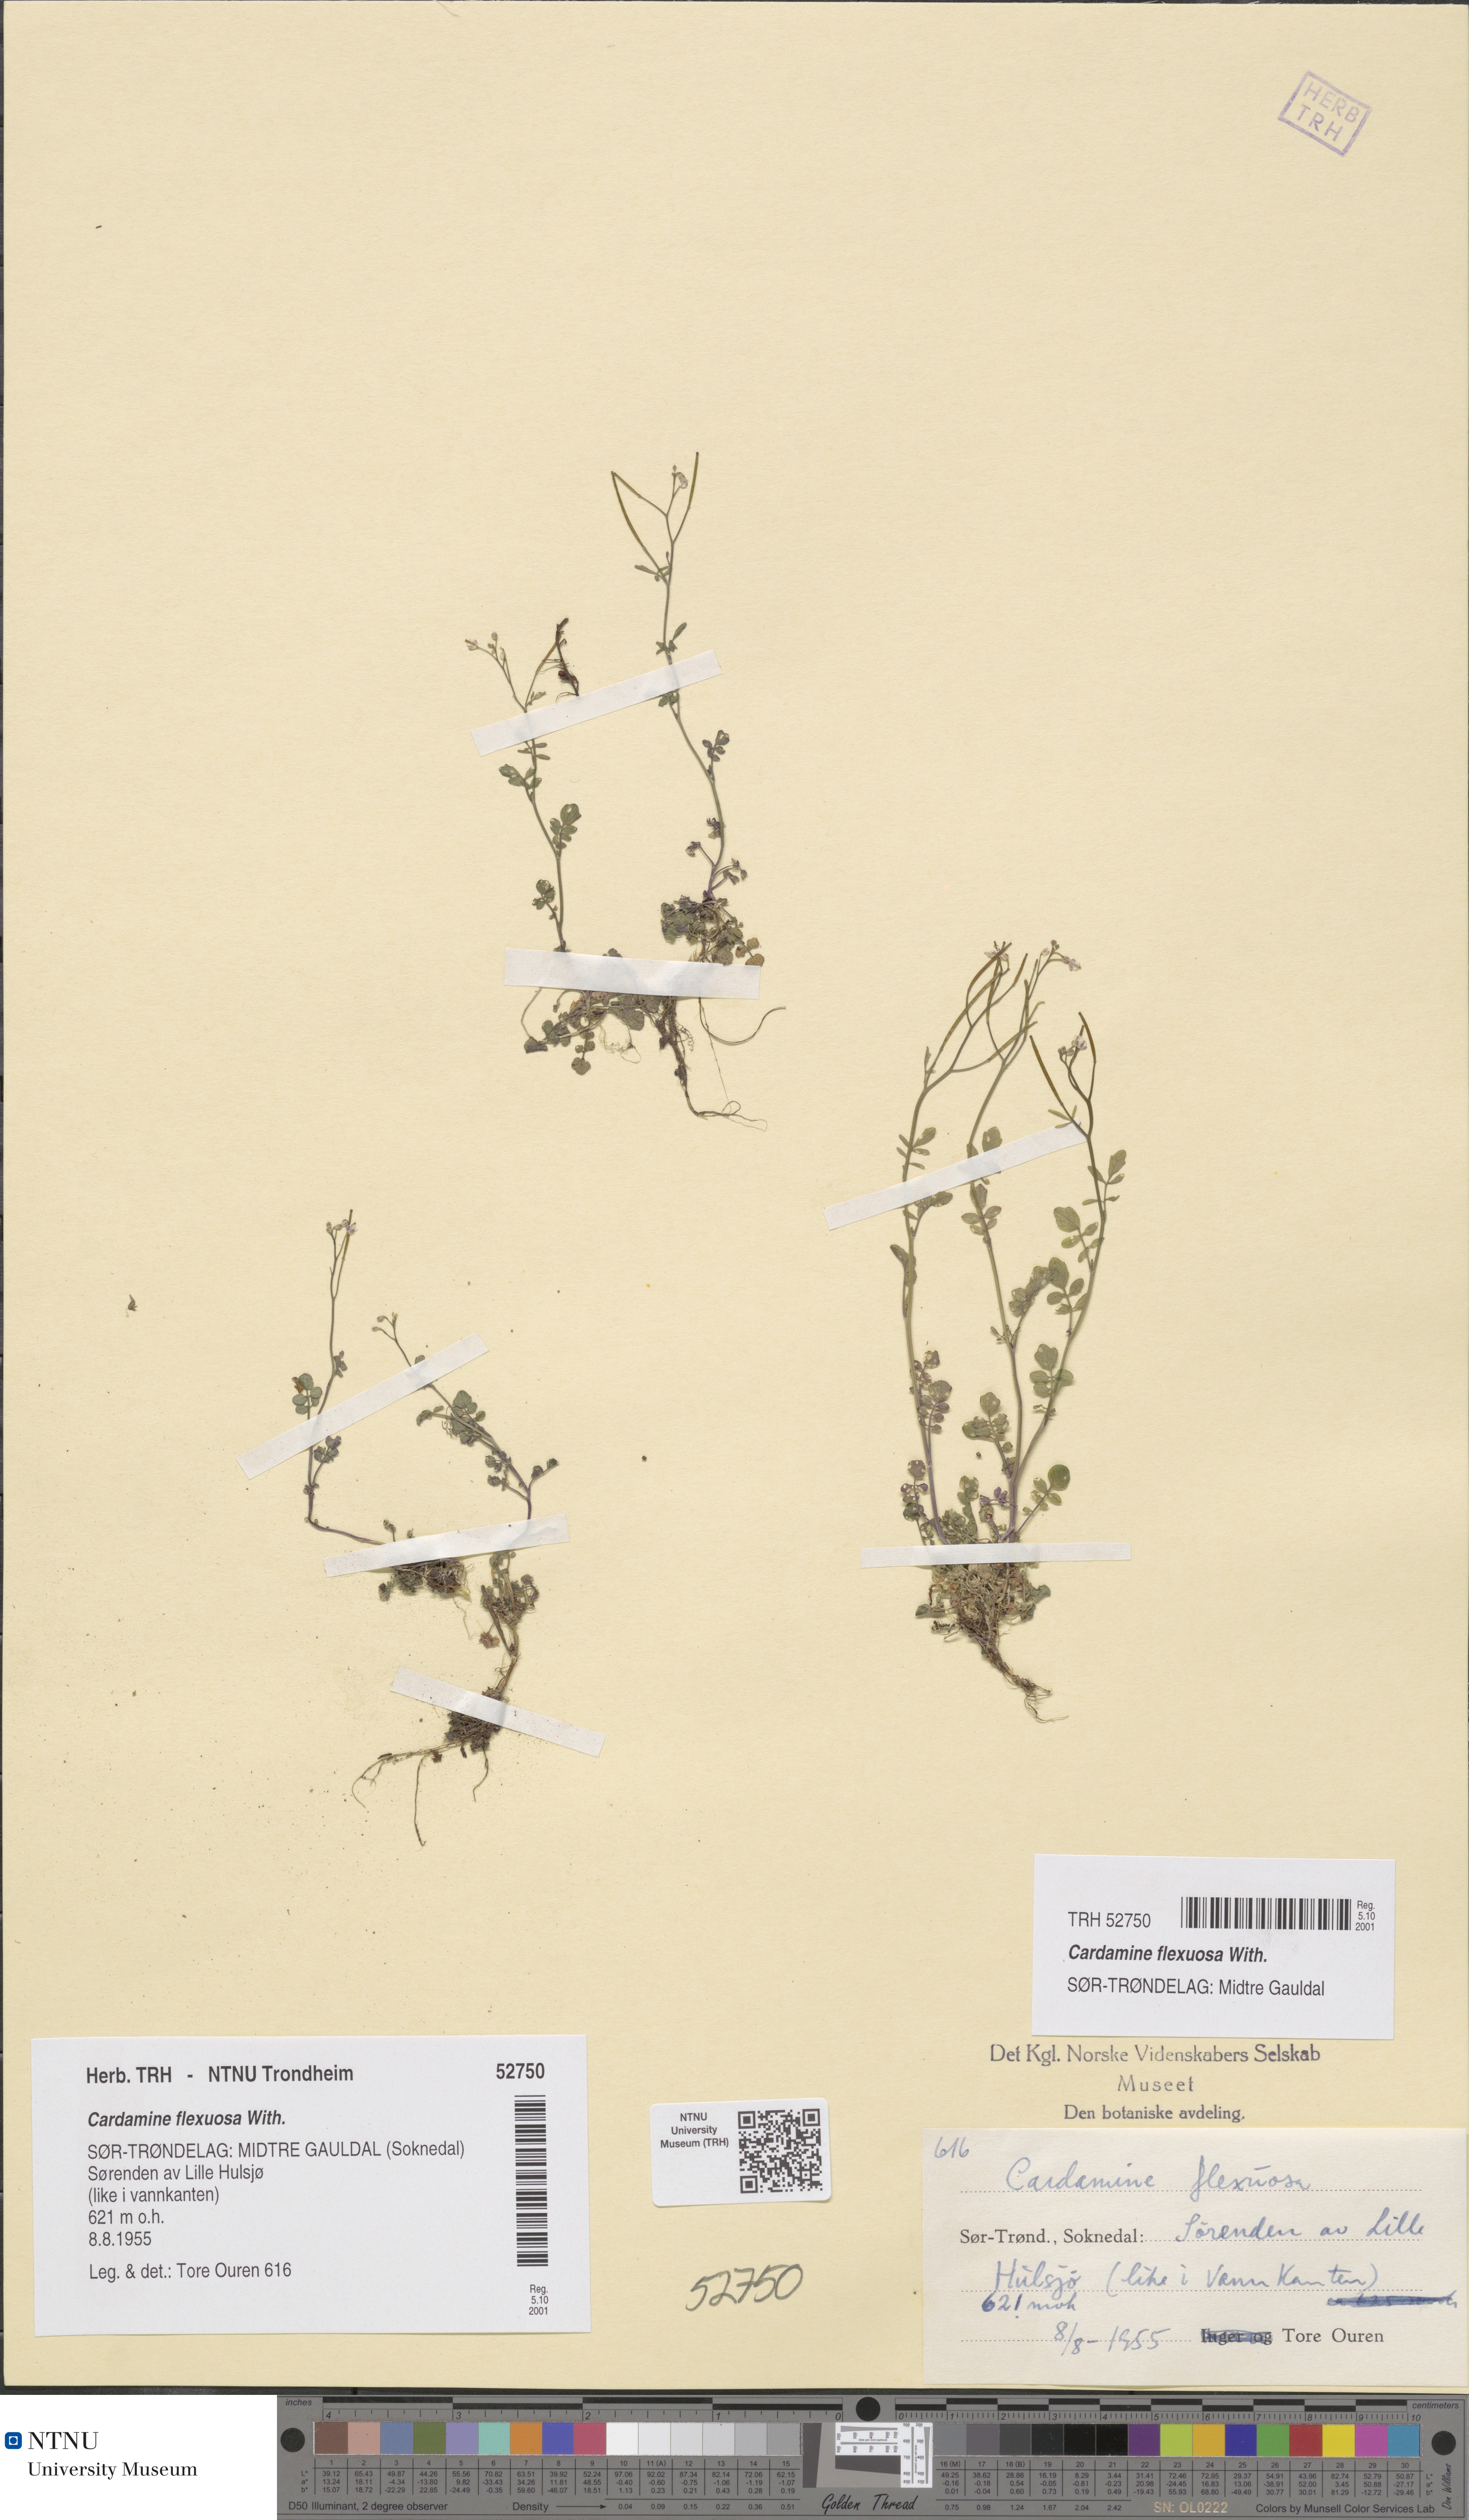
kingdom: Plantae
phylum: Tracheophyta
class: Magnoliopsida
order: Brassicales
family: Brassicaceae
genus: Cardamine
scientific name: Cardamine flexuosa
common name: Woodland bittercress
